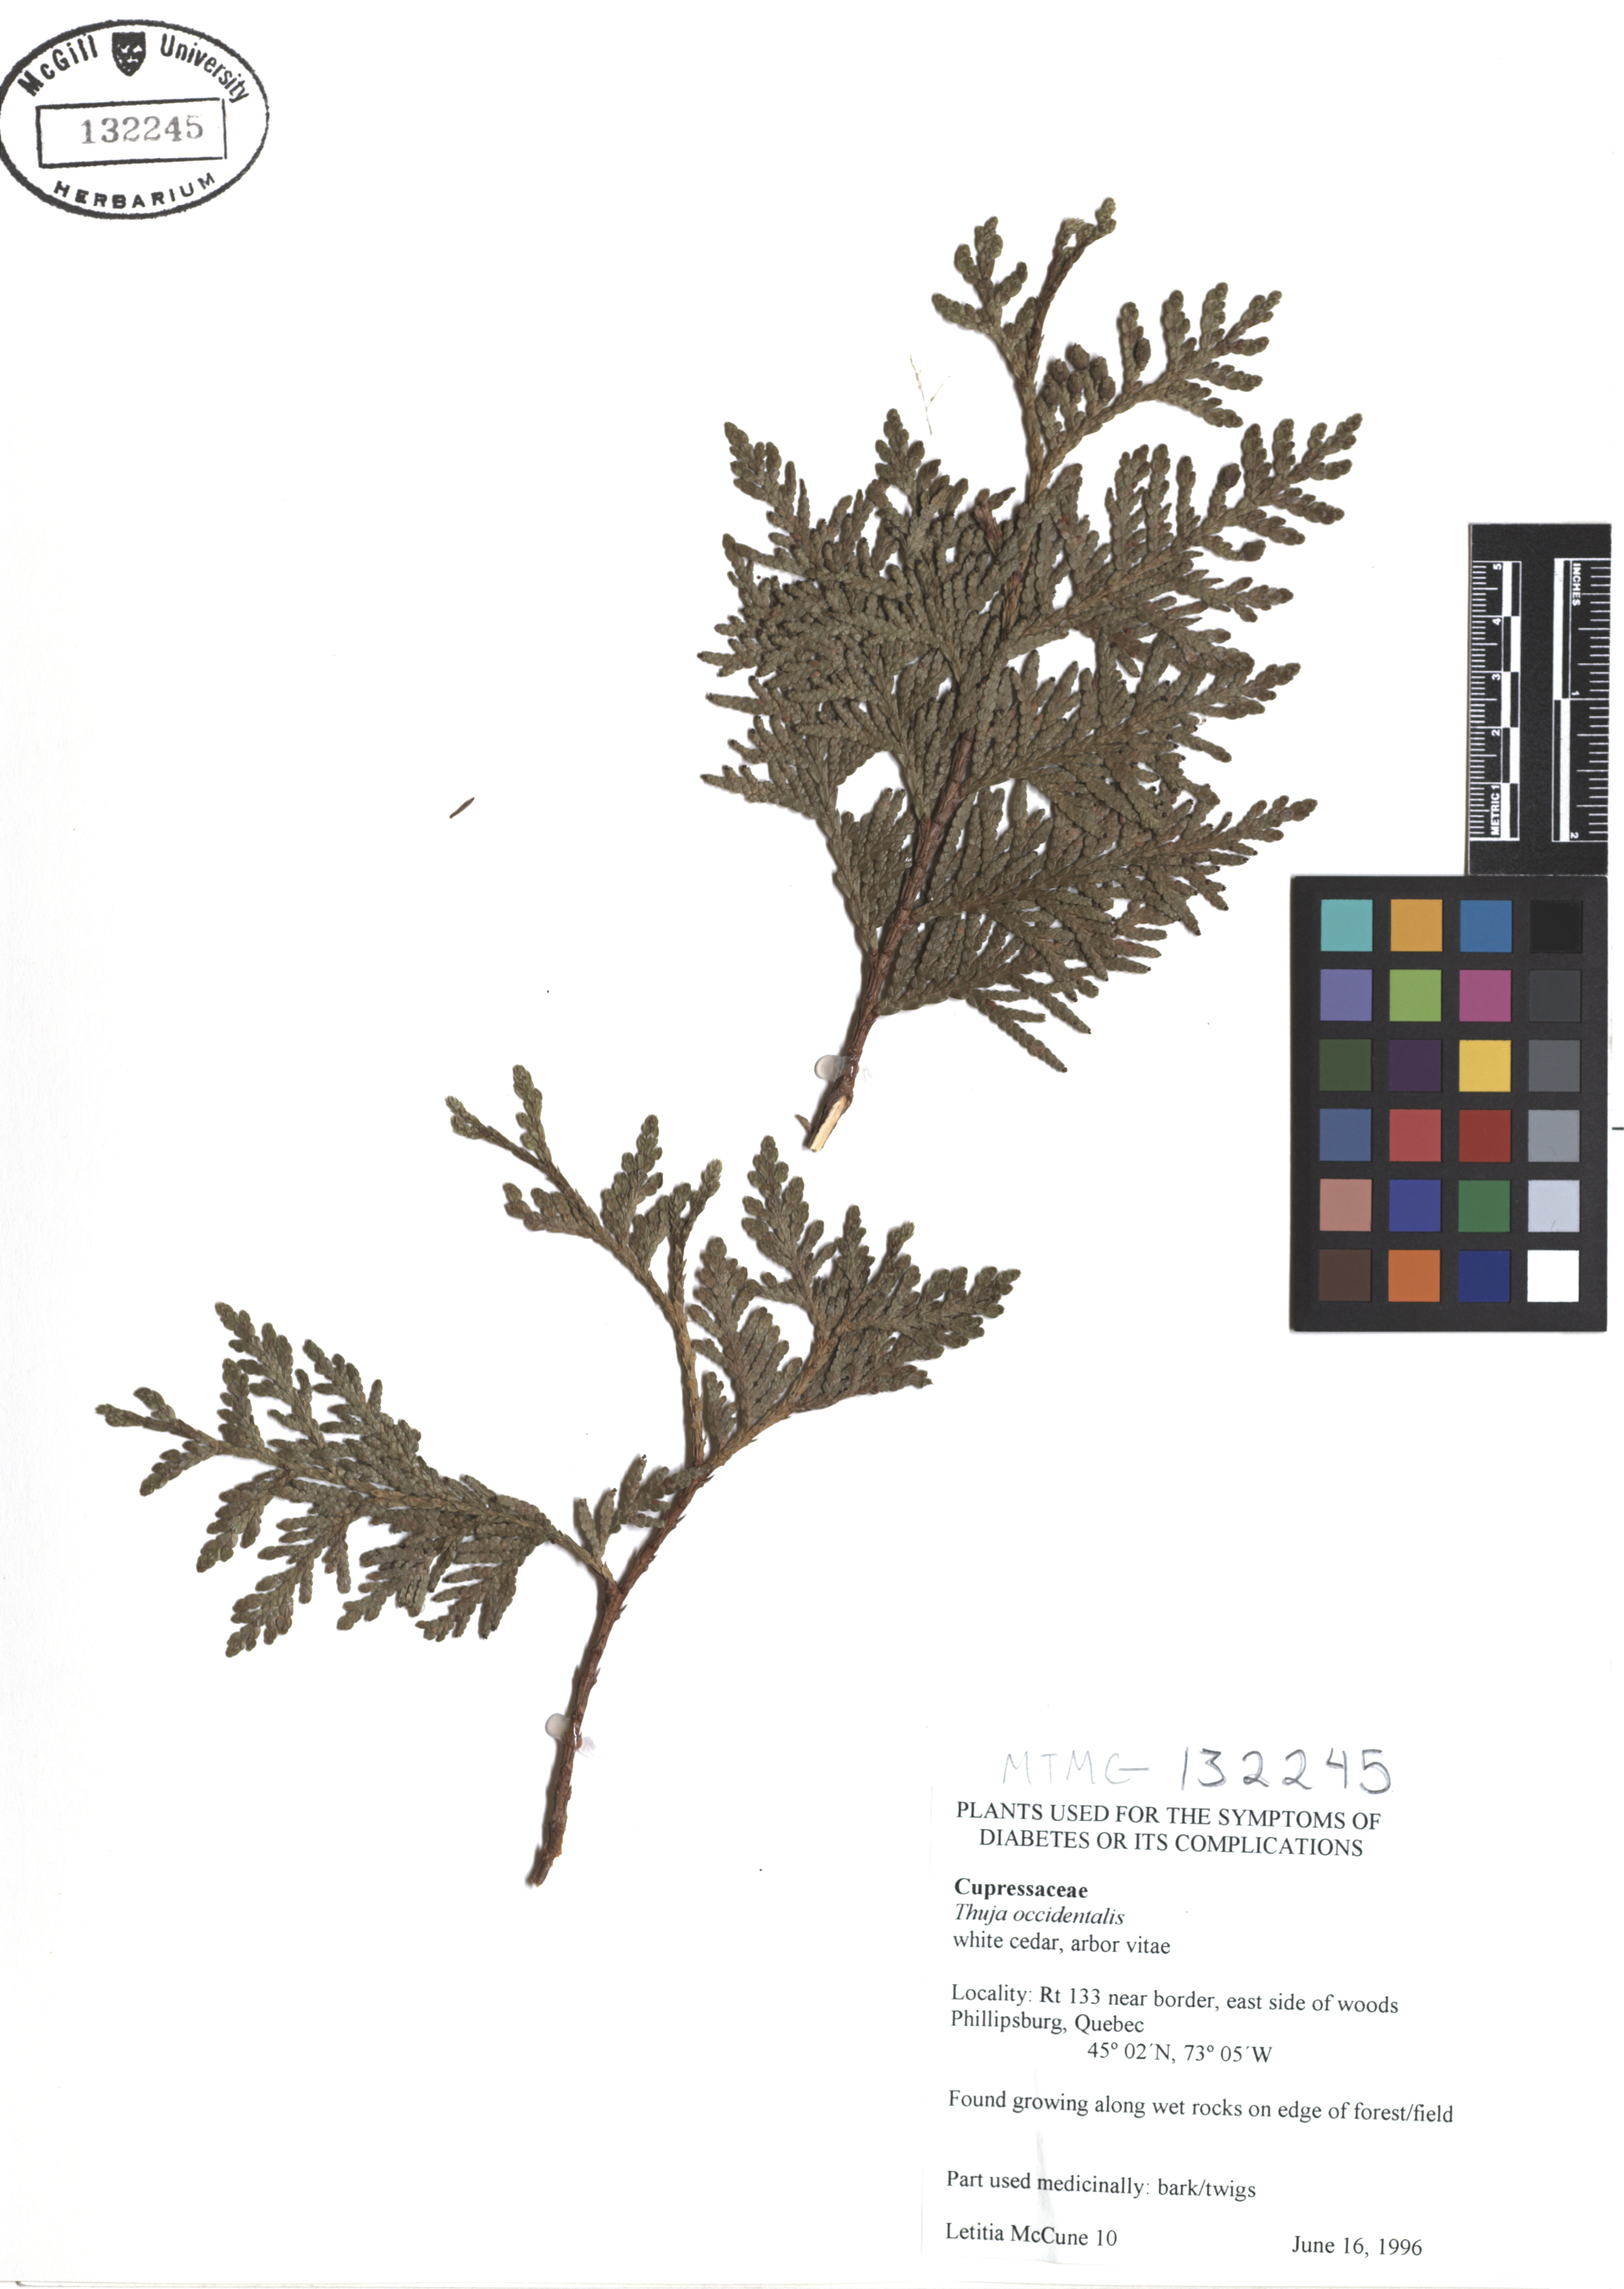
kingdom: Plantae
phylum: Tracheophyta
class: Pinopsida
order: Pinales
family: Cupressaceae
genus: Thuja
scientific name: Thuja occidentalis
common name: Northern white-cedar
